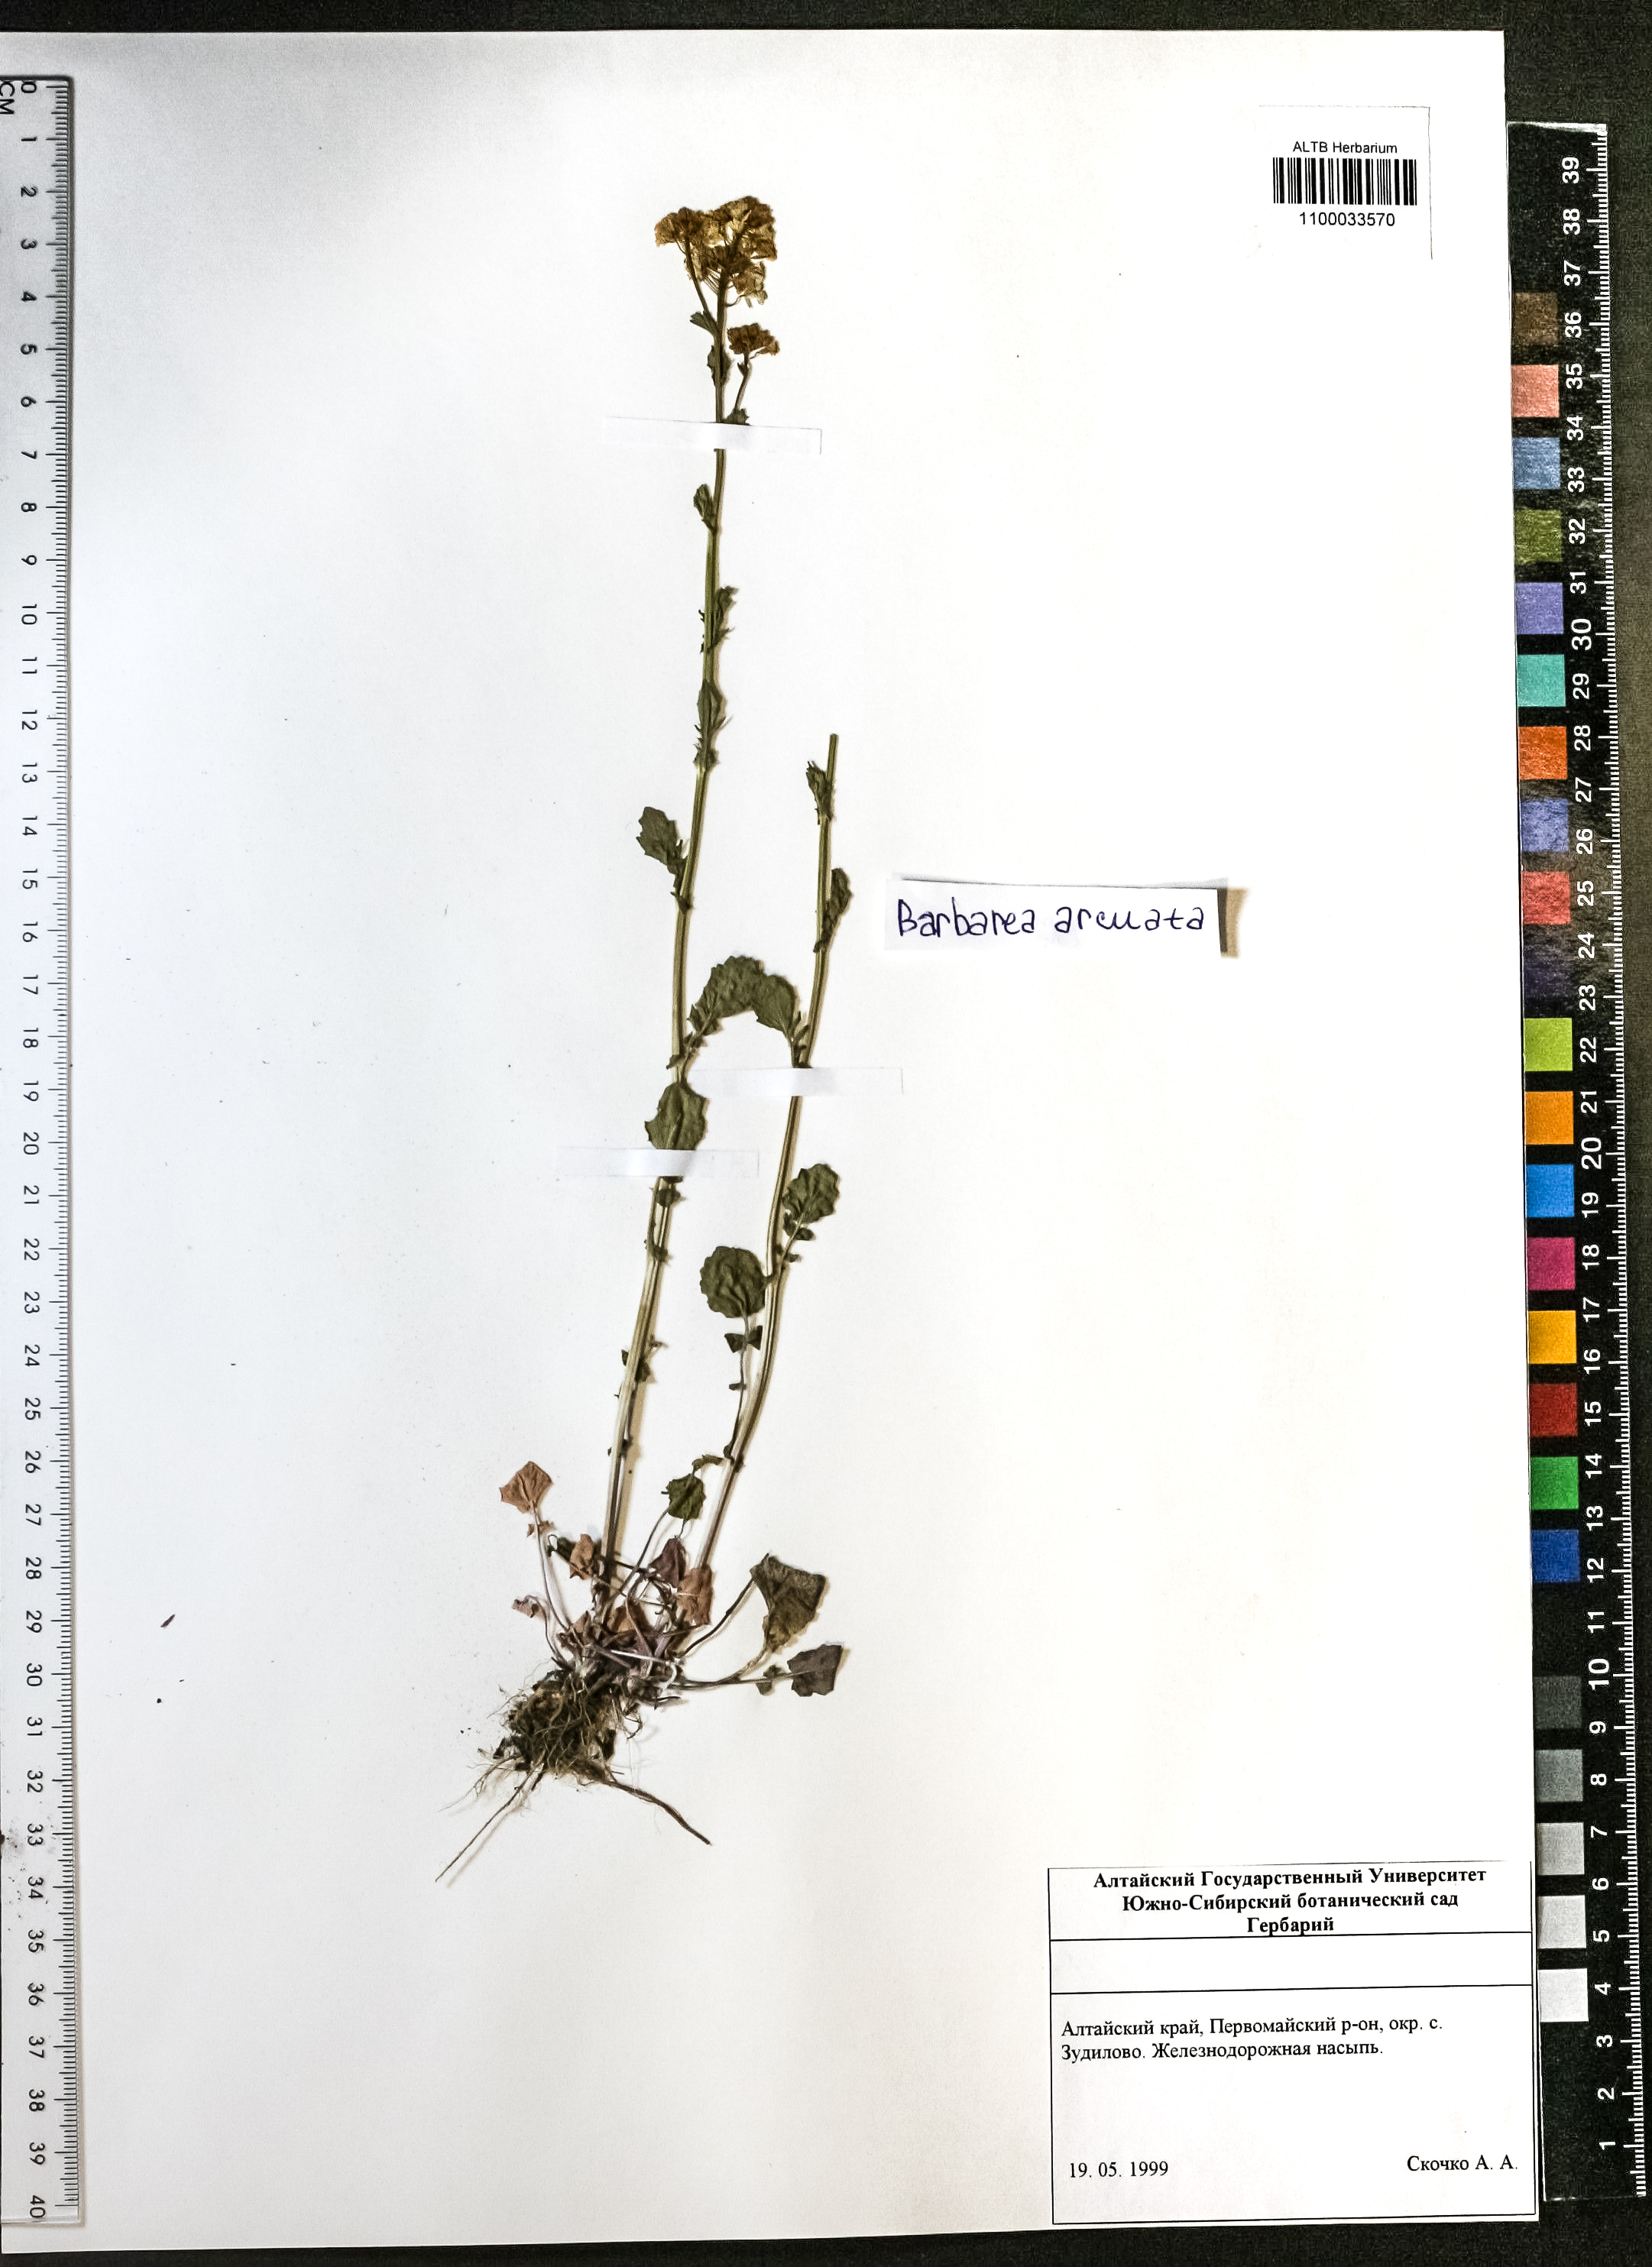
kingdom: Plantae
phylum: Tracheophyta
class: Magnoliopsida
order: Brassicales
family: Brassicaceae
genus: Barbarea
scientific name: Barbarea vulgaris
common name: Cressy-greens
